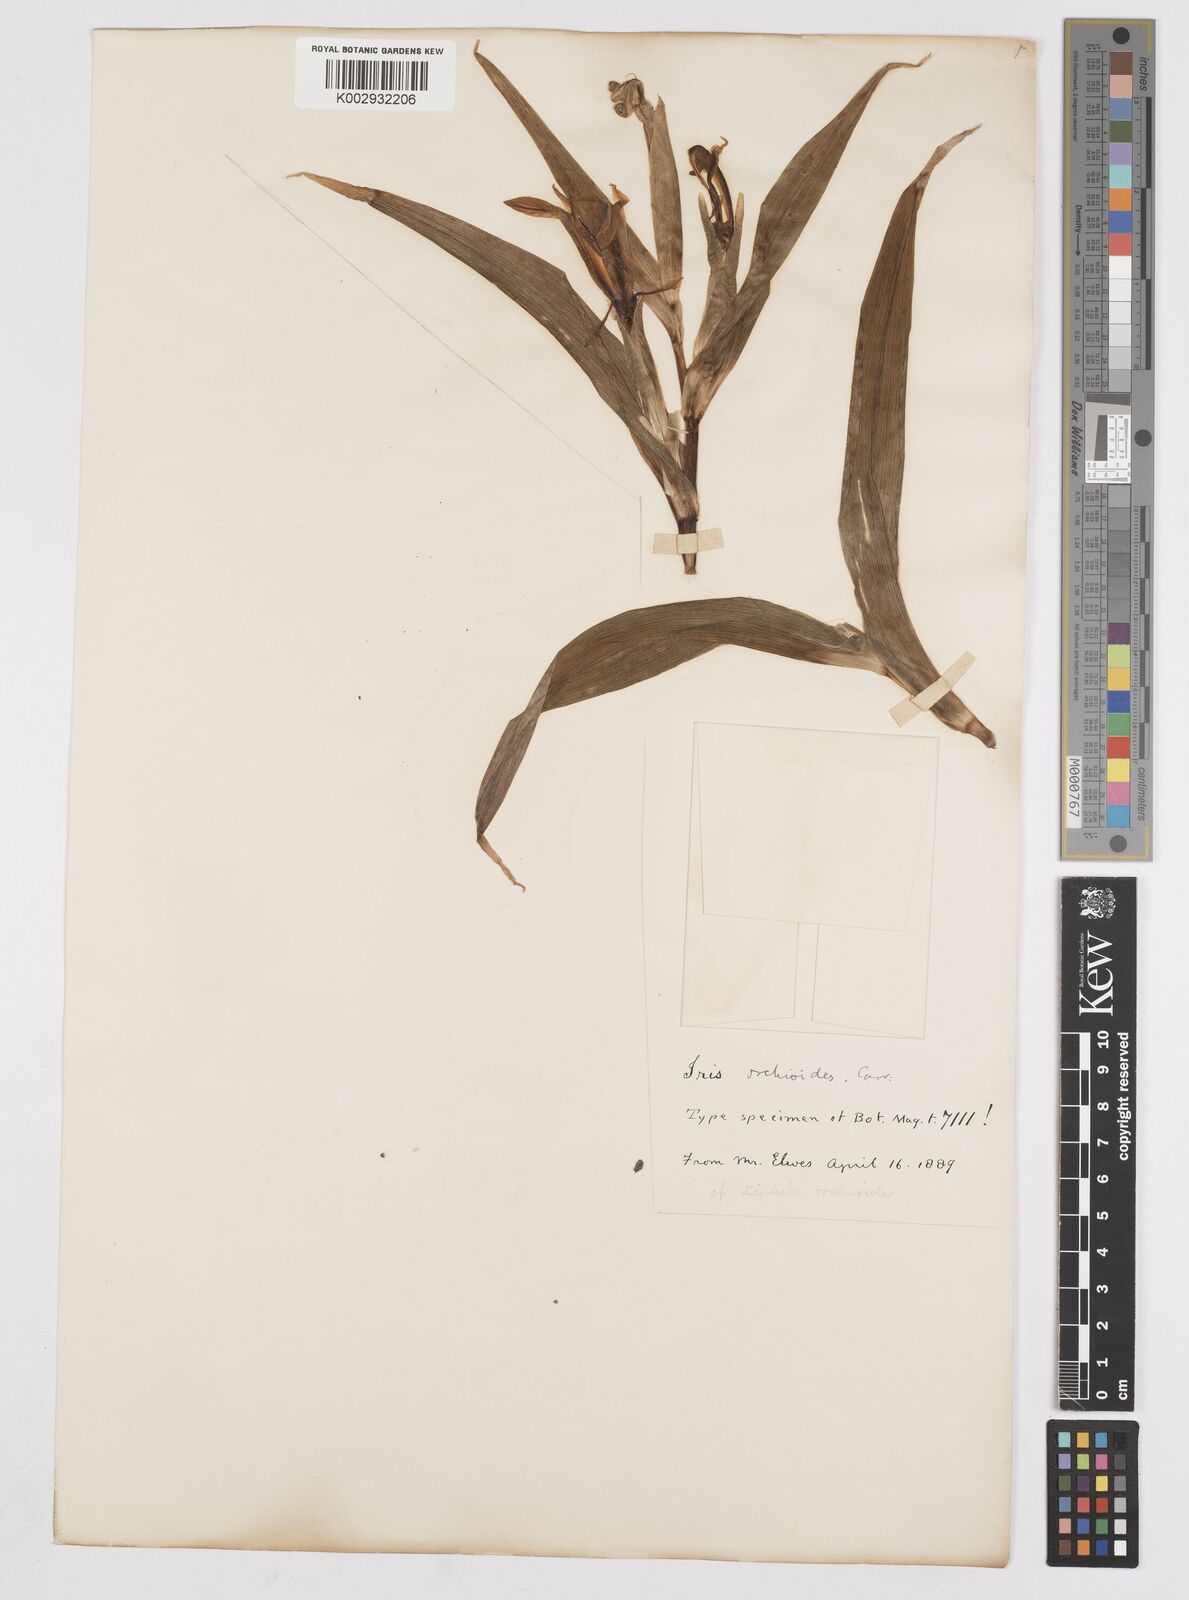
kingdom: Plantae
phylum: Tracheophyta
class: Liliopsida
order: Asparagales
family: Iridaceae
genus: Iris
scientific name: Iris orchioides
